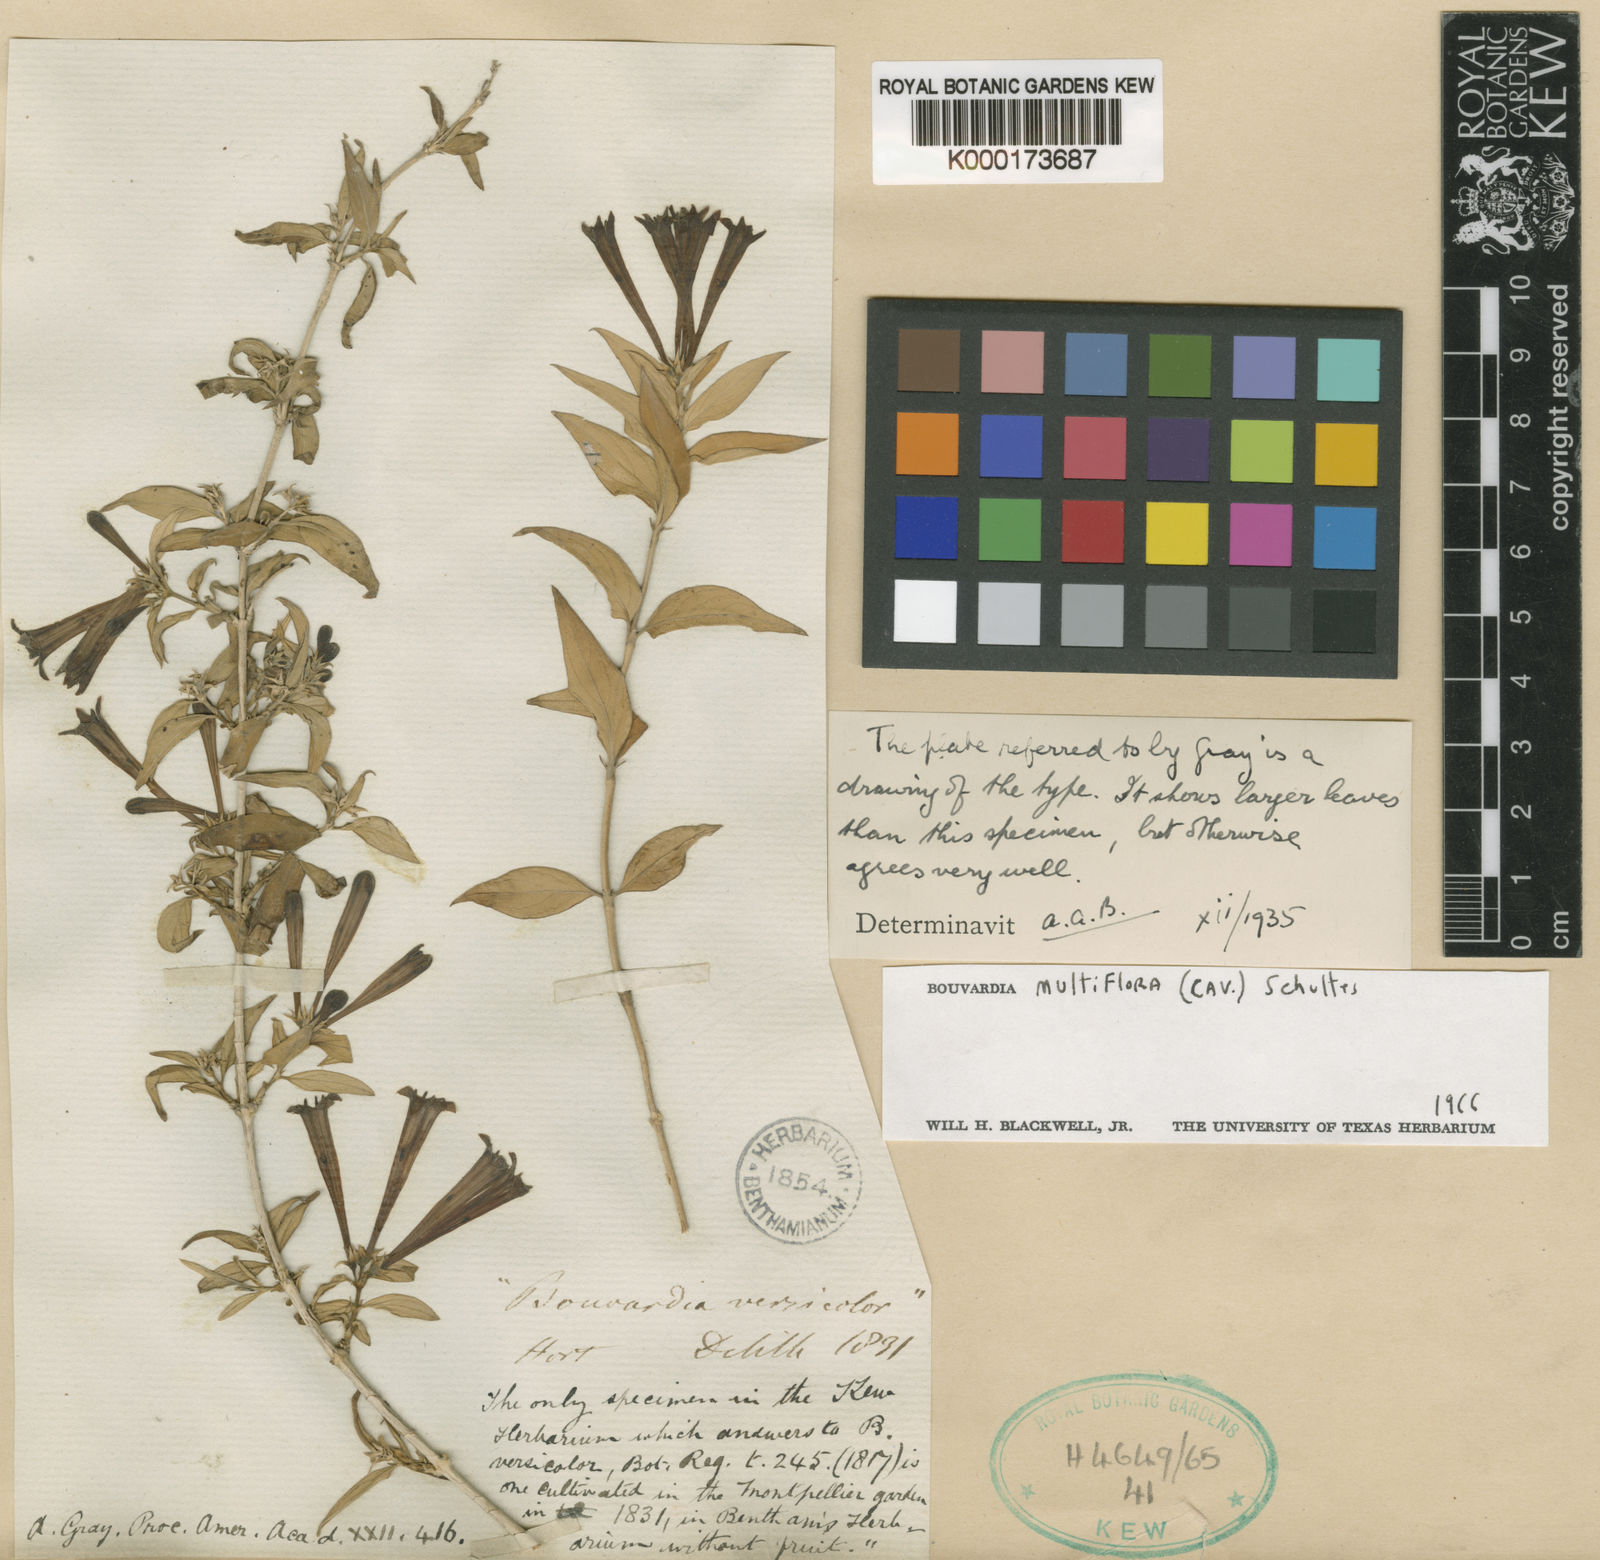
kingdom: Plantae
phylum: Tracheophyta
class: Magnoliopsida
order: Gentianales
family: Rubiaceae
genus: Bouvardia
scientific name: Bouvardia multiflora
